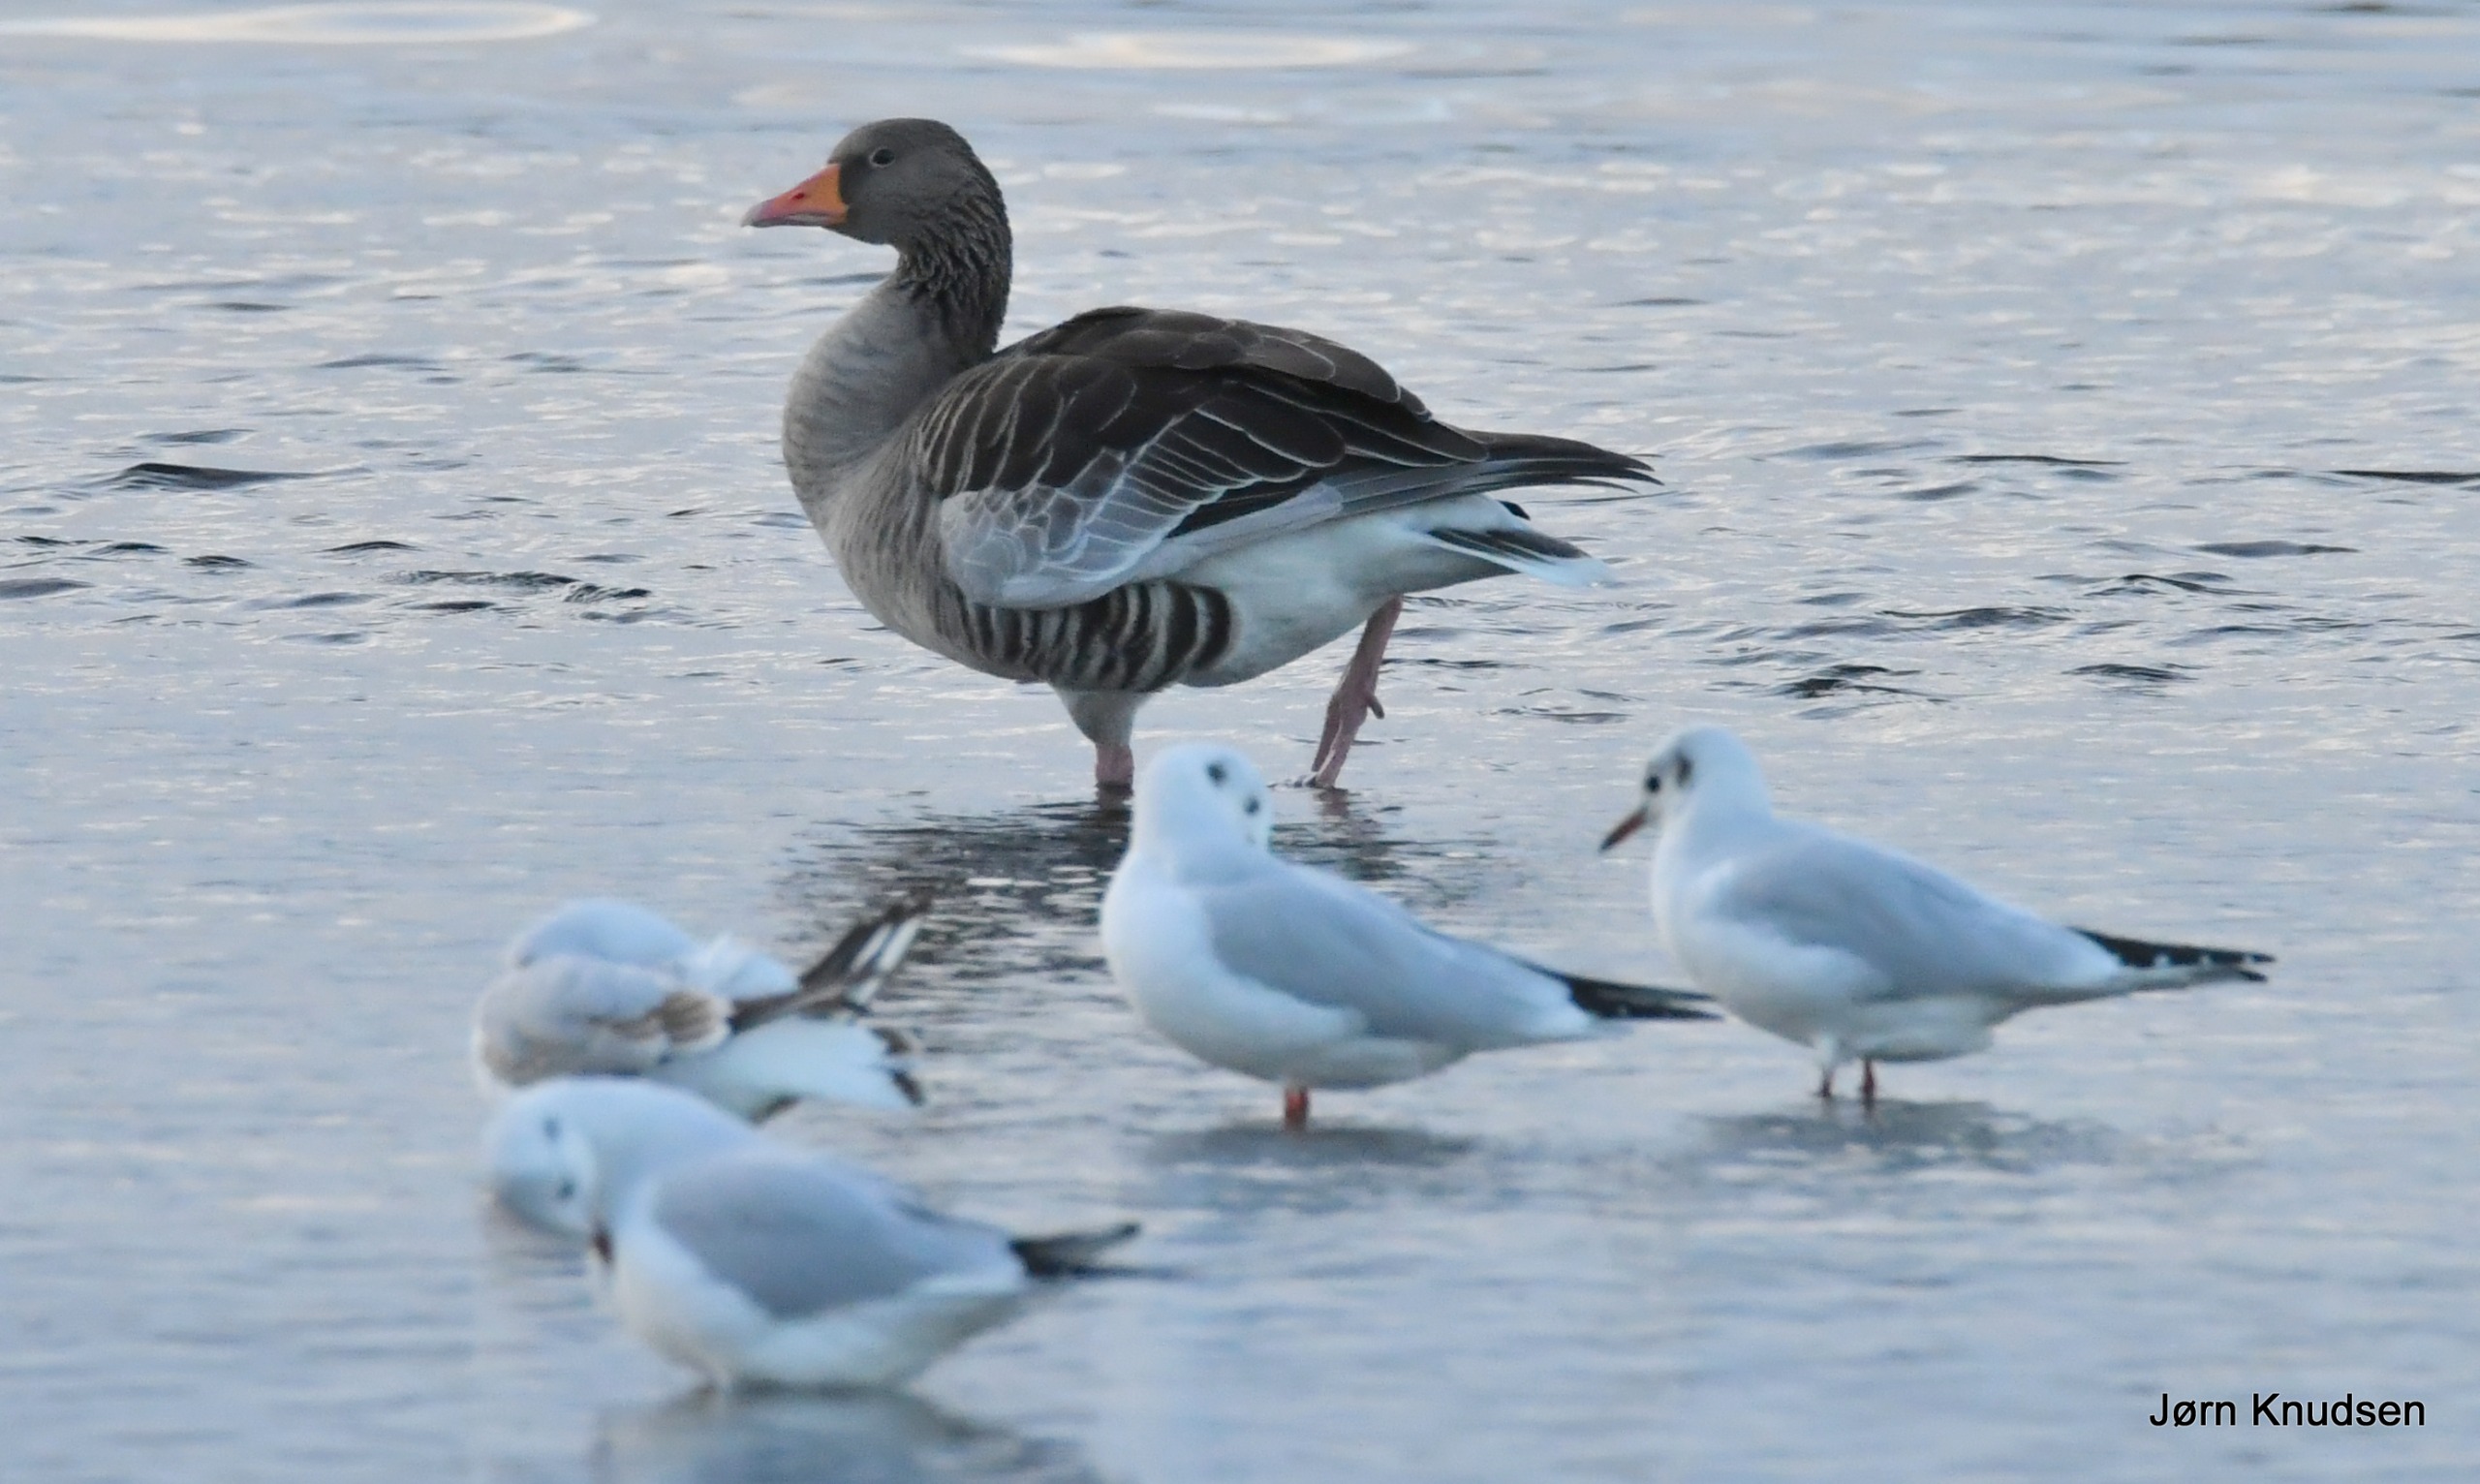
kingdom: Animalia
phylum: Chordata
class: Aves
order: Anseriformes
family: Anatidae
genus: Anser
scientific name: Anser anser
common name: Grågås
